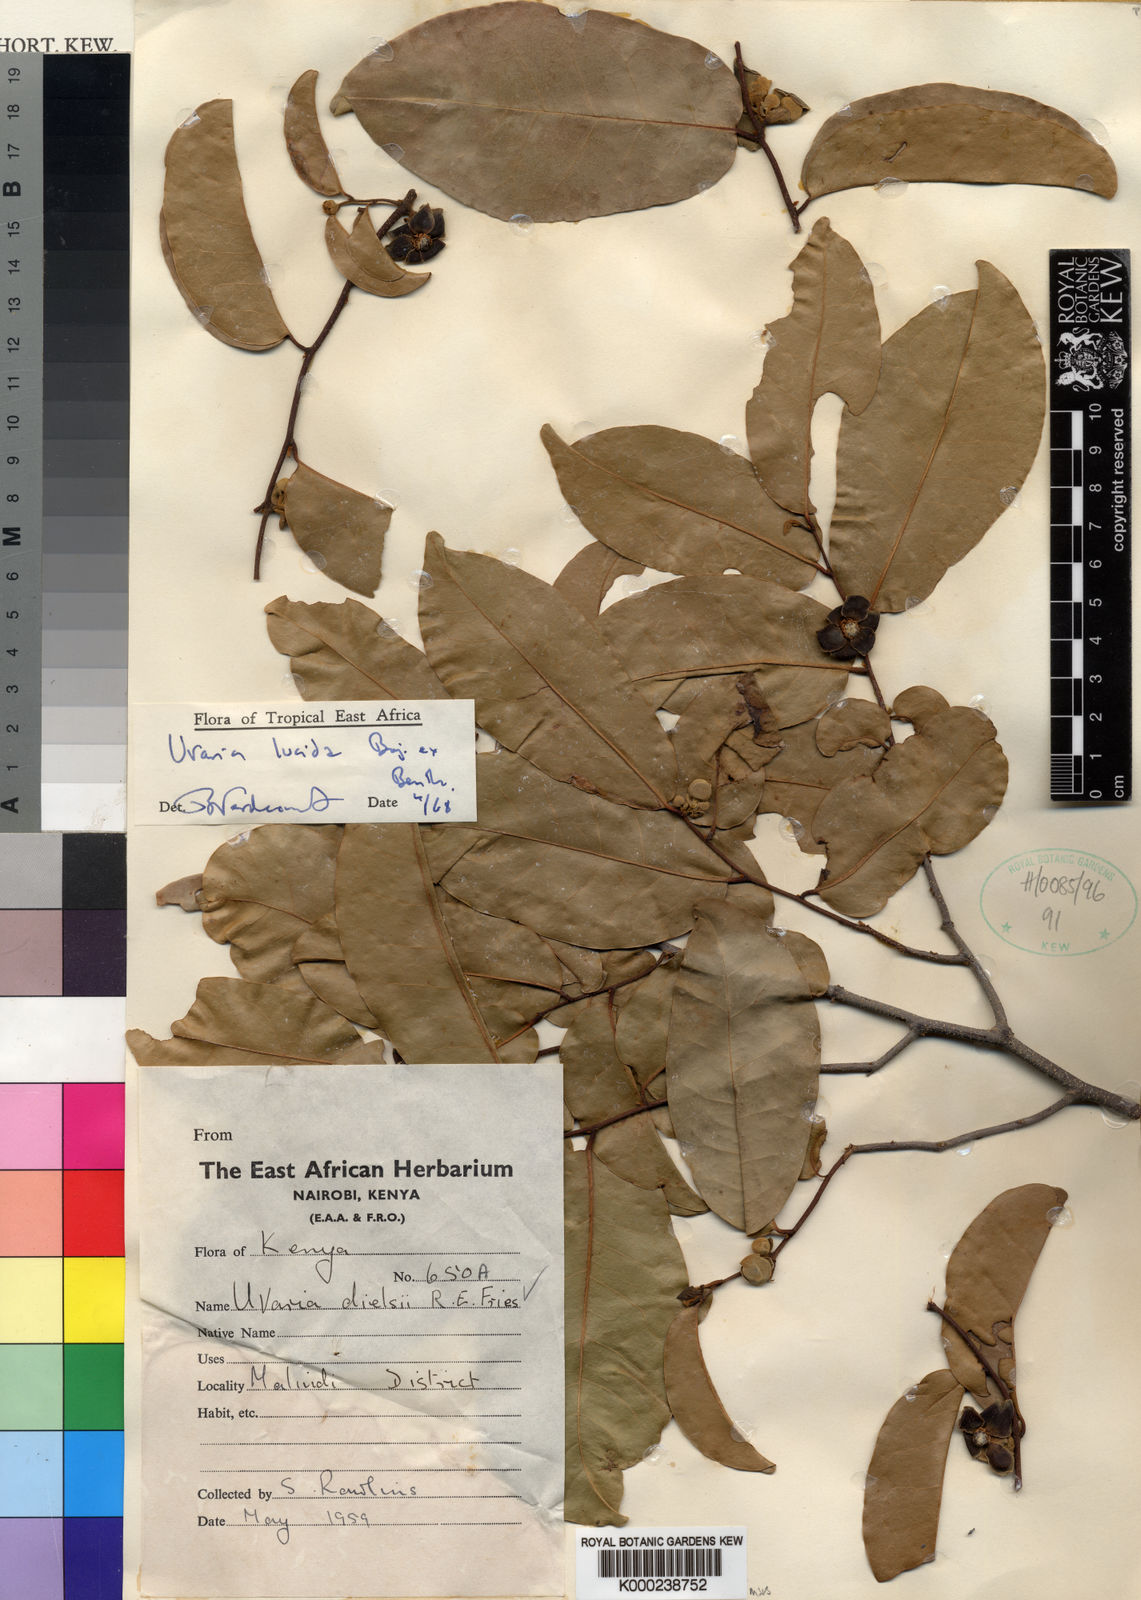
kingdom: Plantae
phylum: Tracheophyta
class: Magnoliopsida
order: Magnoliales
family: Annonaceae
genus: Uvaria
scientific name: Uvaria lucida
